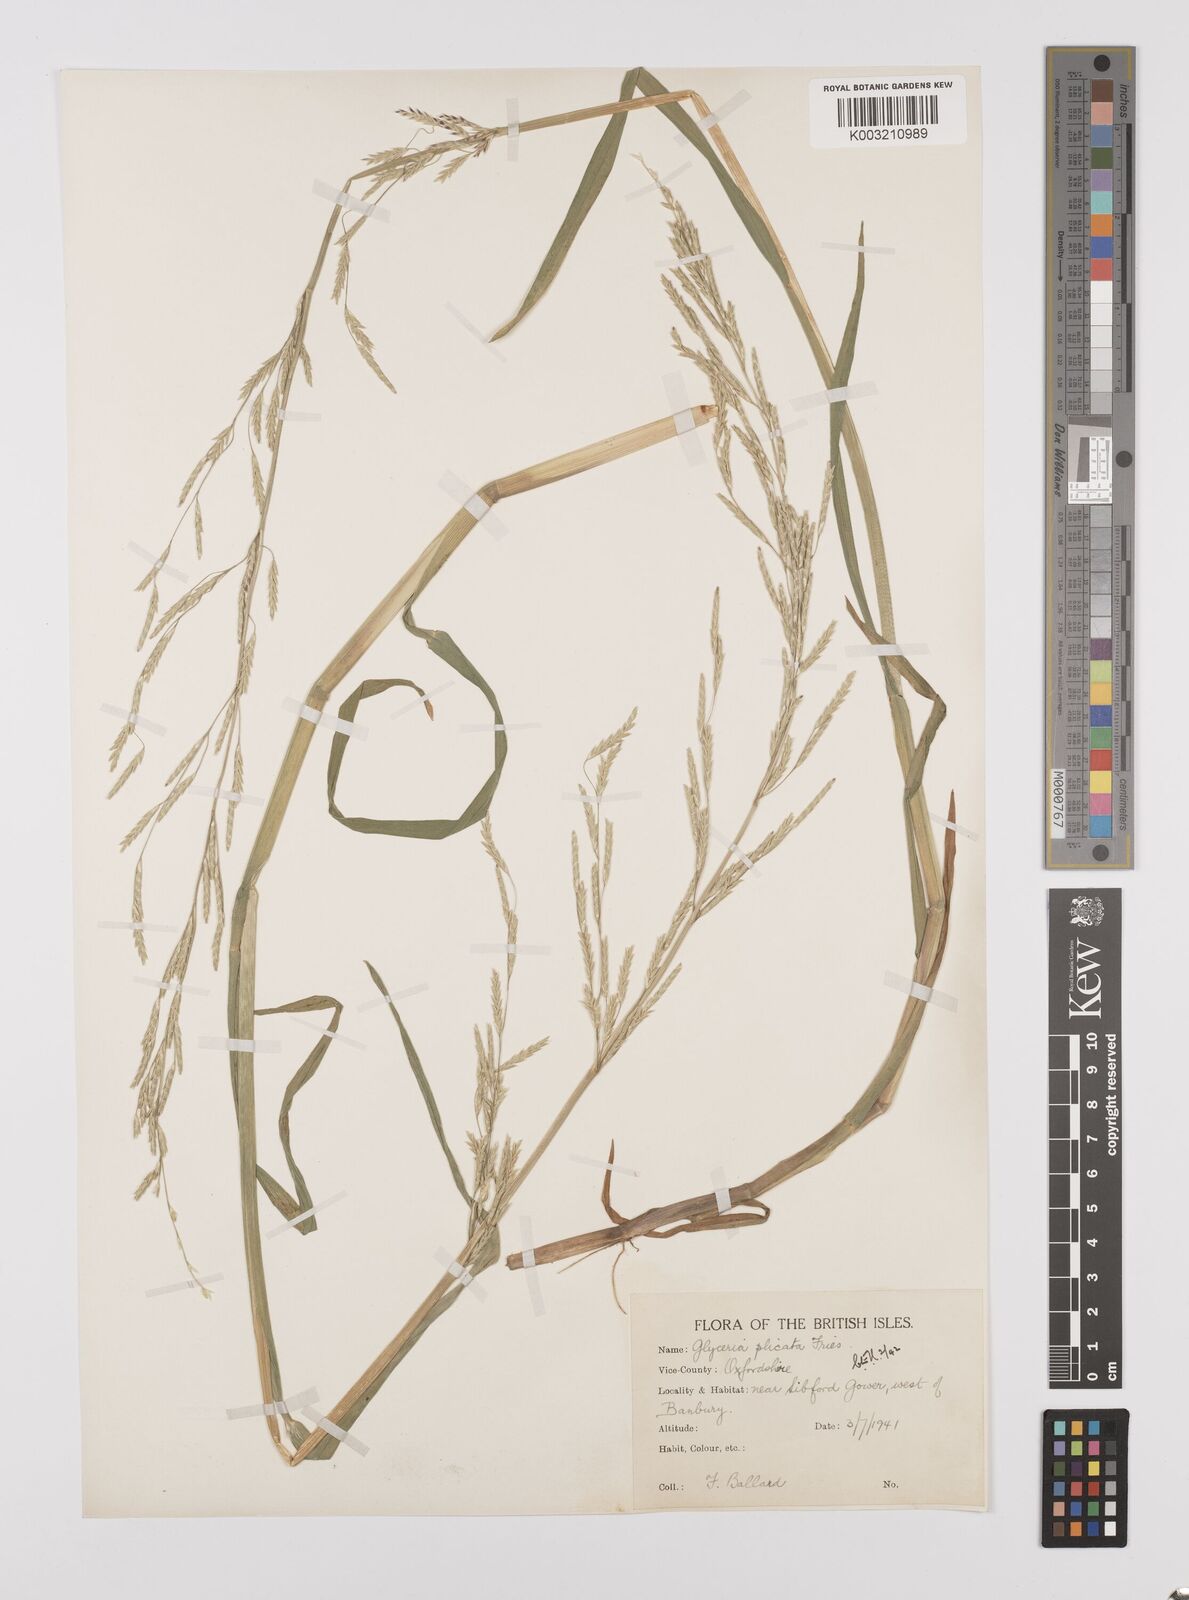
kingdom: Plantae
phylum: Tracheophyta
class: Liliopsida
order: Poales
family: Poaceae
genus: Glyceria
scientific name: Glyceria notata
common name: Plicate sweet-grass
